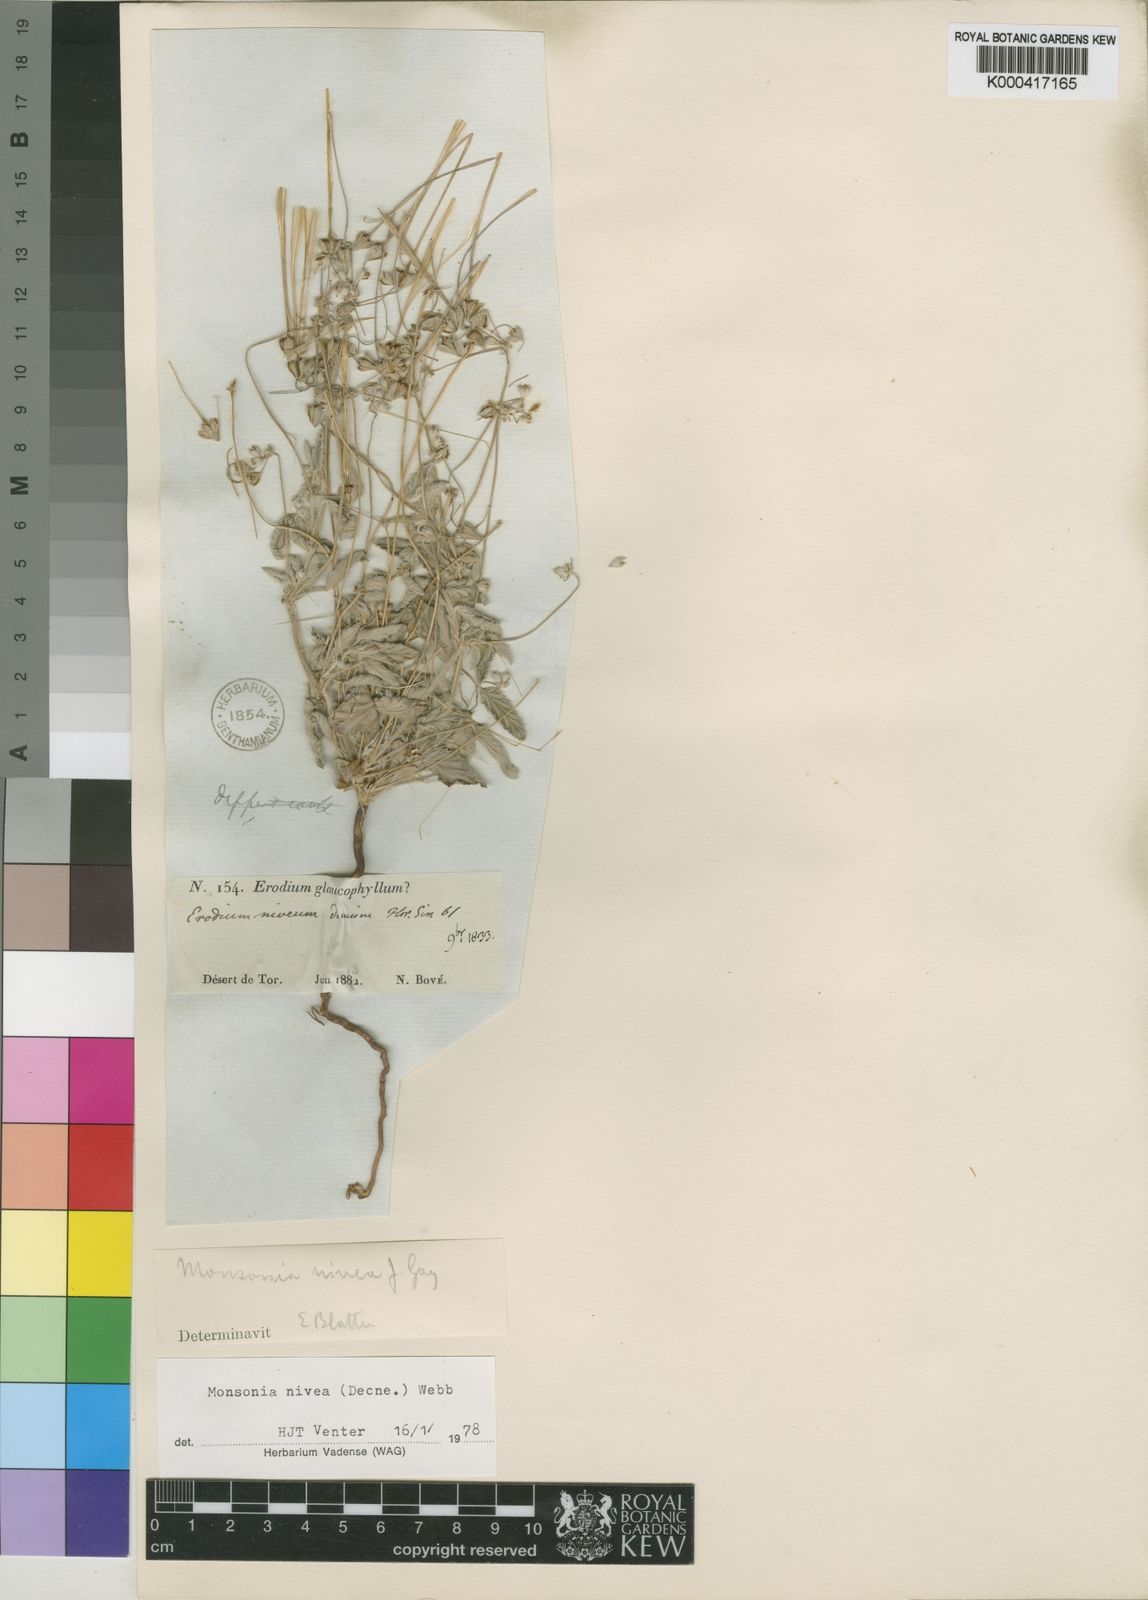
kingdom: Plantae
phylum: Tracheophyta
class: Magnoliopsida
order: Geraniales
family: Geraniaceae
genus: Monsonia
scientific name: Monsonia nivea
